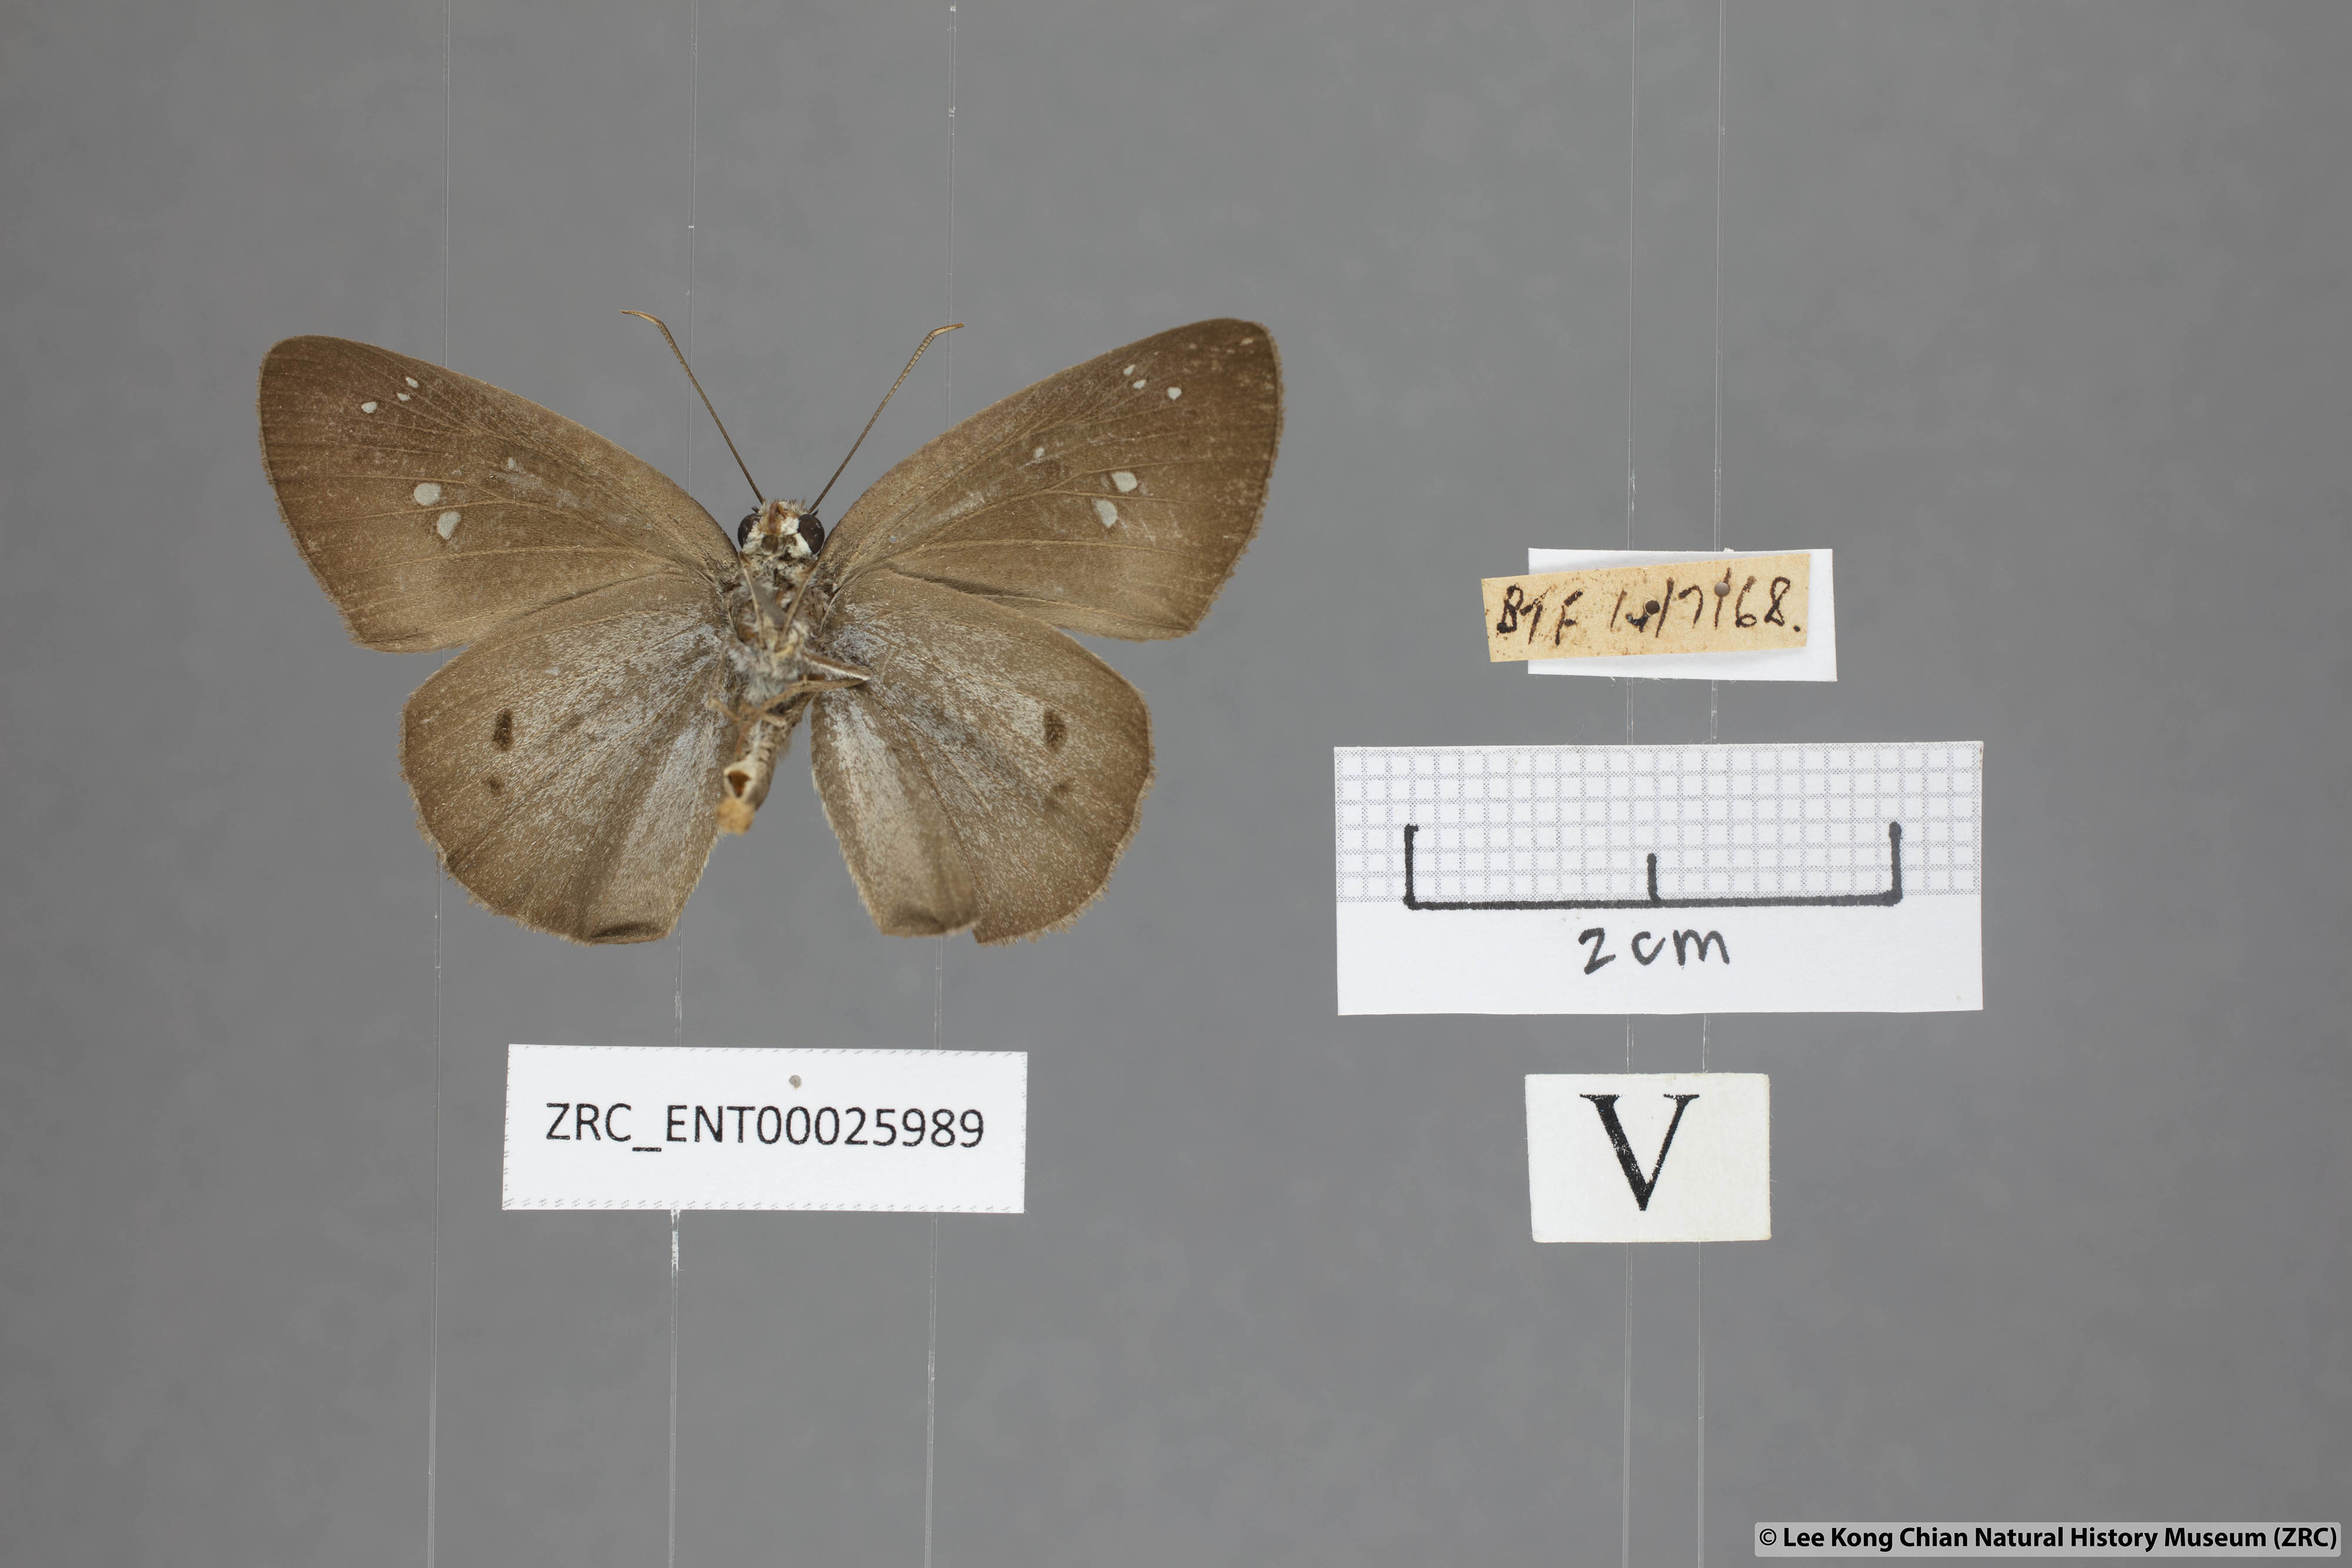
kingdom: Animalia
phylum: Arthropoda
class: Insecta
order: Lepidoptera
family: Hesperiidae
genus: Tagiades
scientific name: Tagiades japetus
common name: Pied flat
